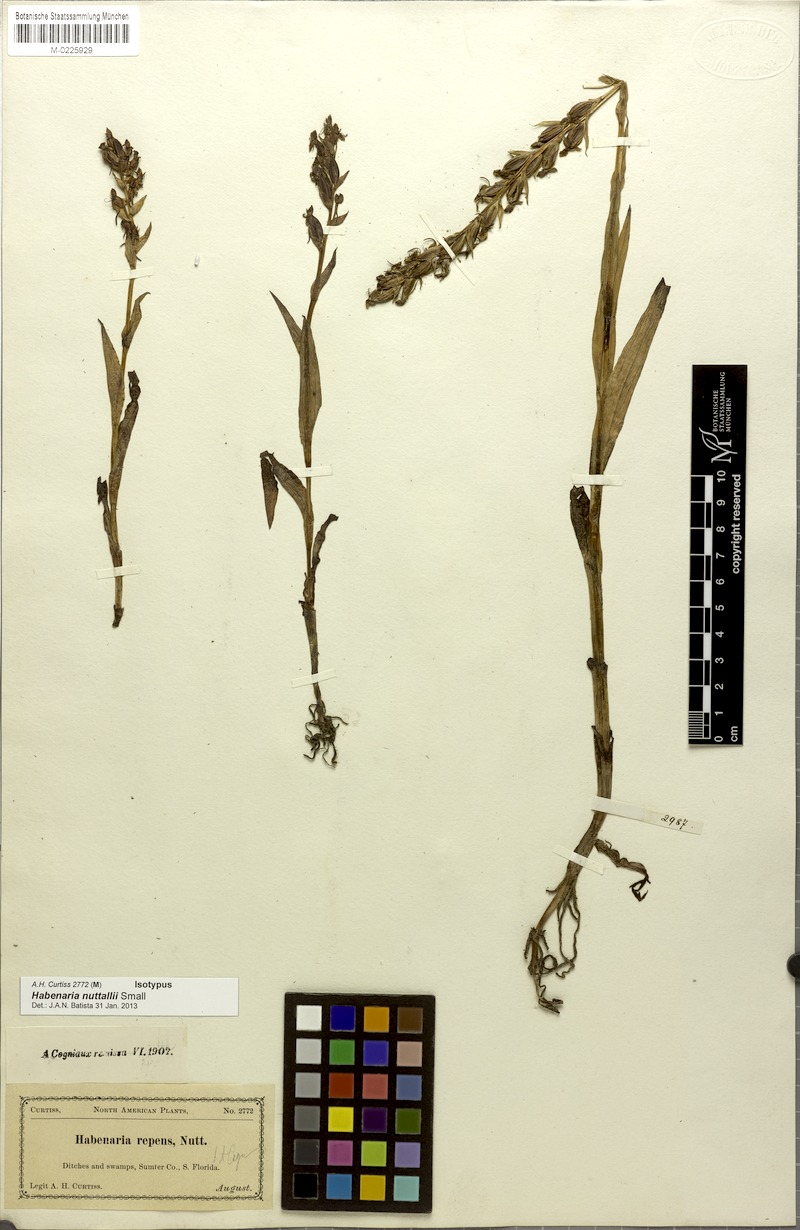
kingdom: Plantae
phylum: Tracheophyta
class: Liliopsida
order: Asparagales
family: Orchidaceae
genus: Habenaria
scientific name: Habenaria repens
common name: Water orchid
